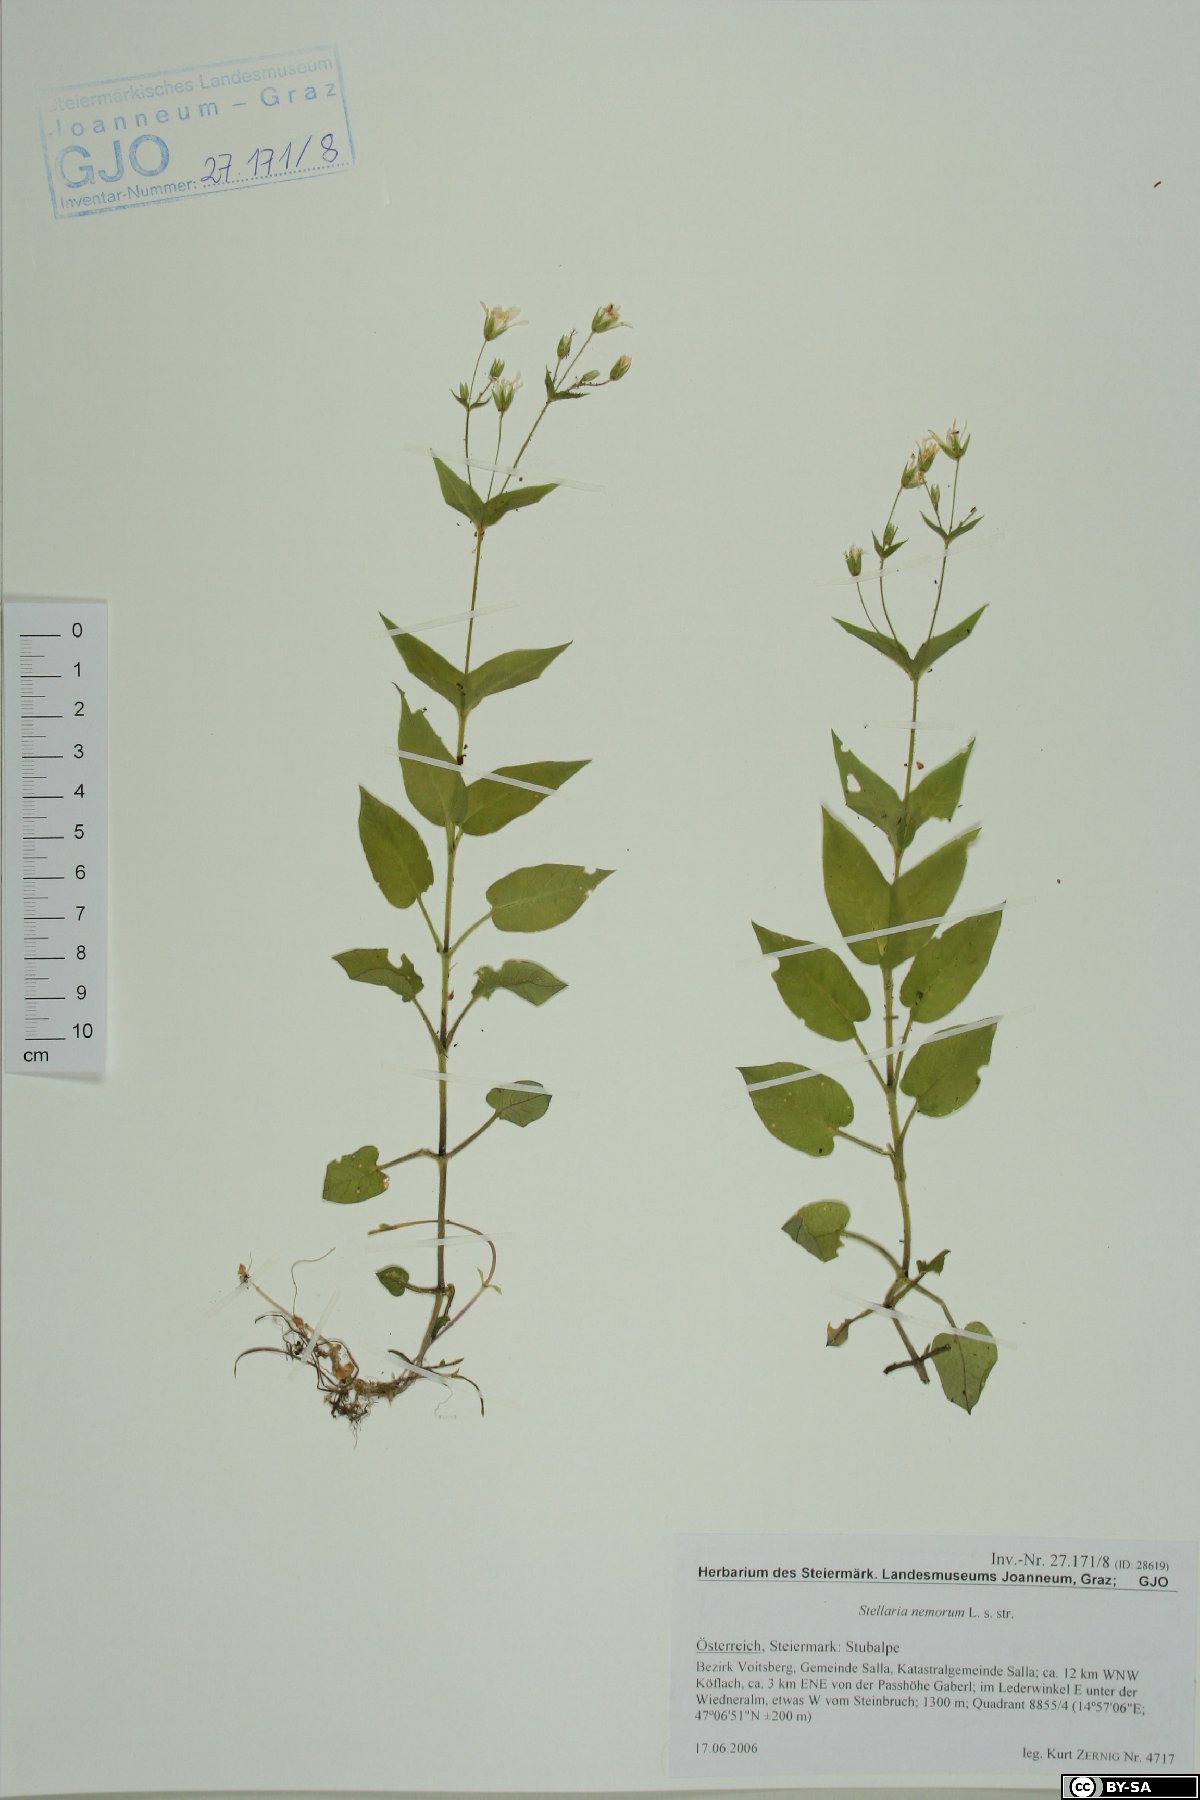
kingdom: Plantae
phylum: Tracheophyta
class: Magnoliopsida
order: Caryophyllales
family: Caryophyllaceae
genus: Stellaria
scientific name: Stellaria nemorum
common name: Wood stitchwort
